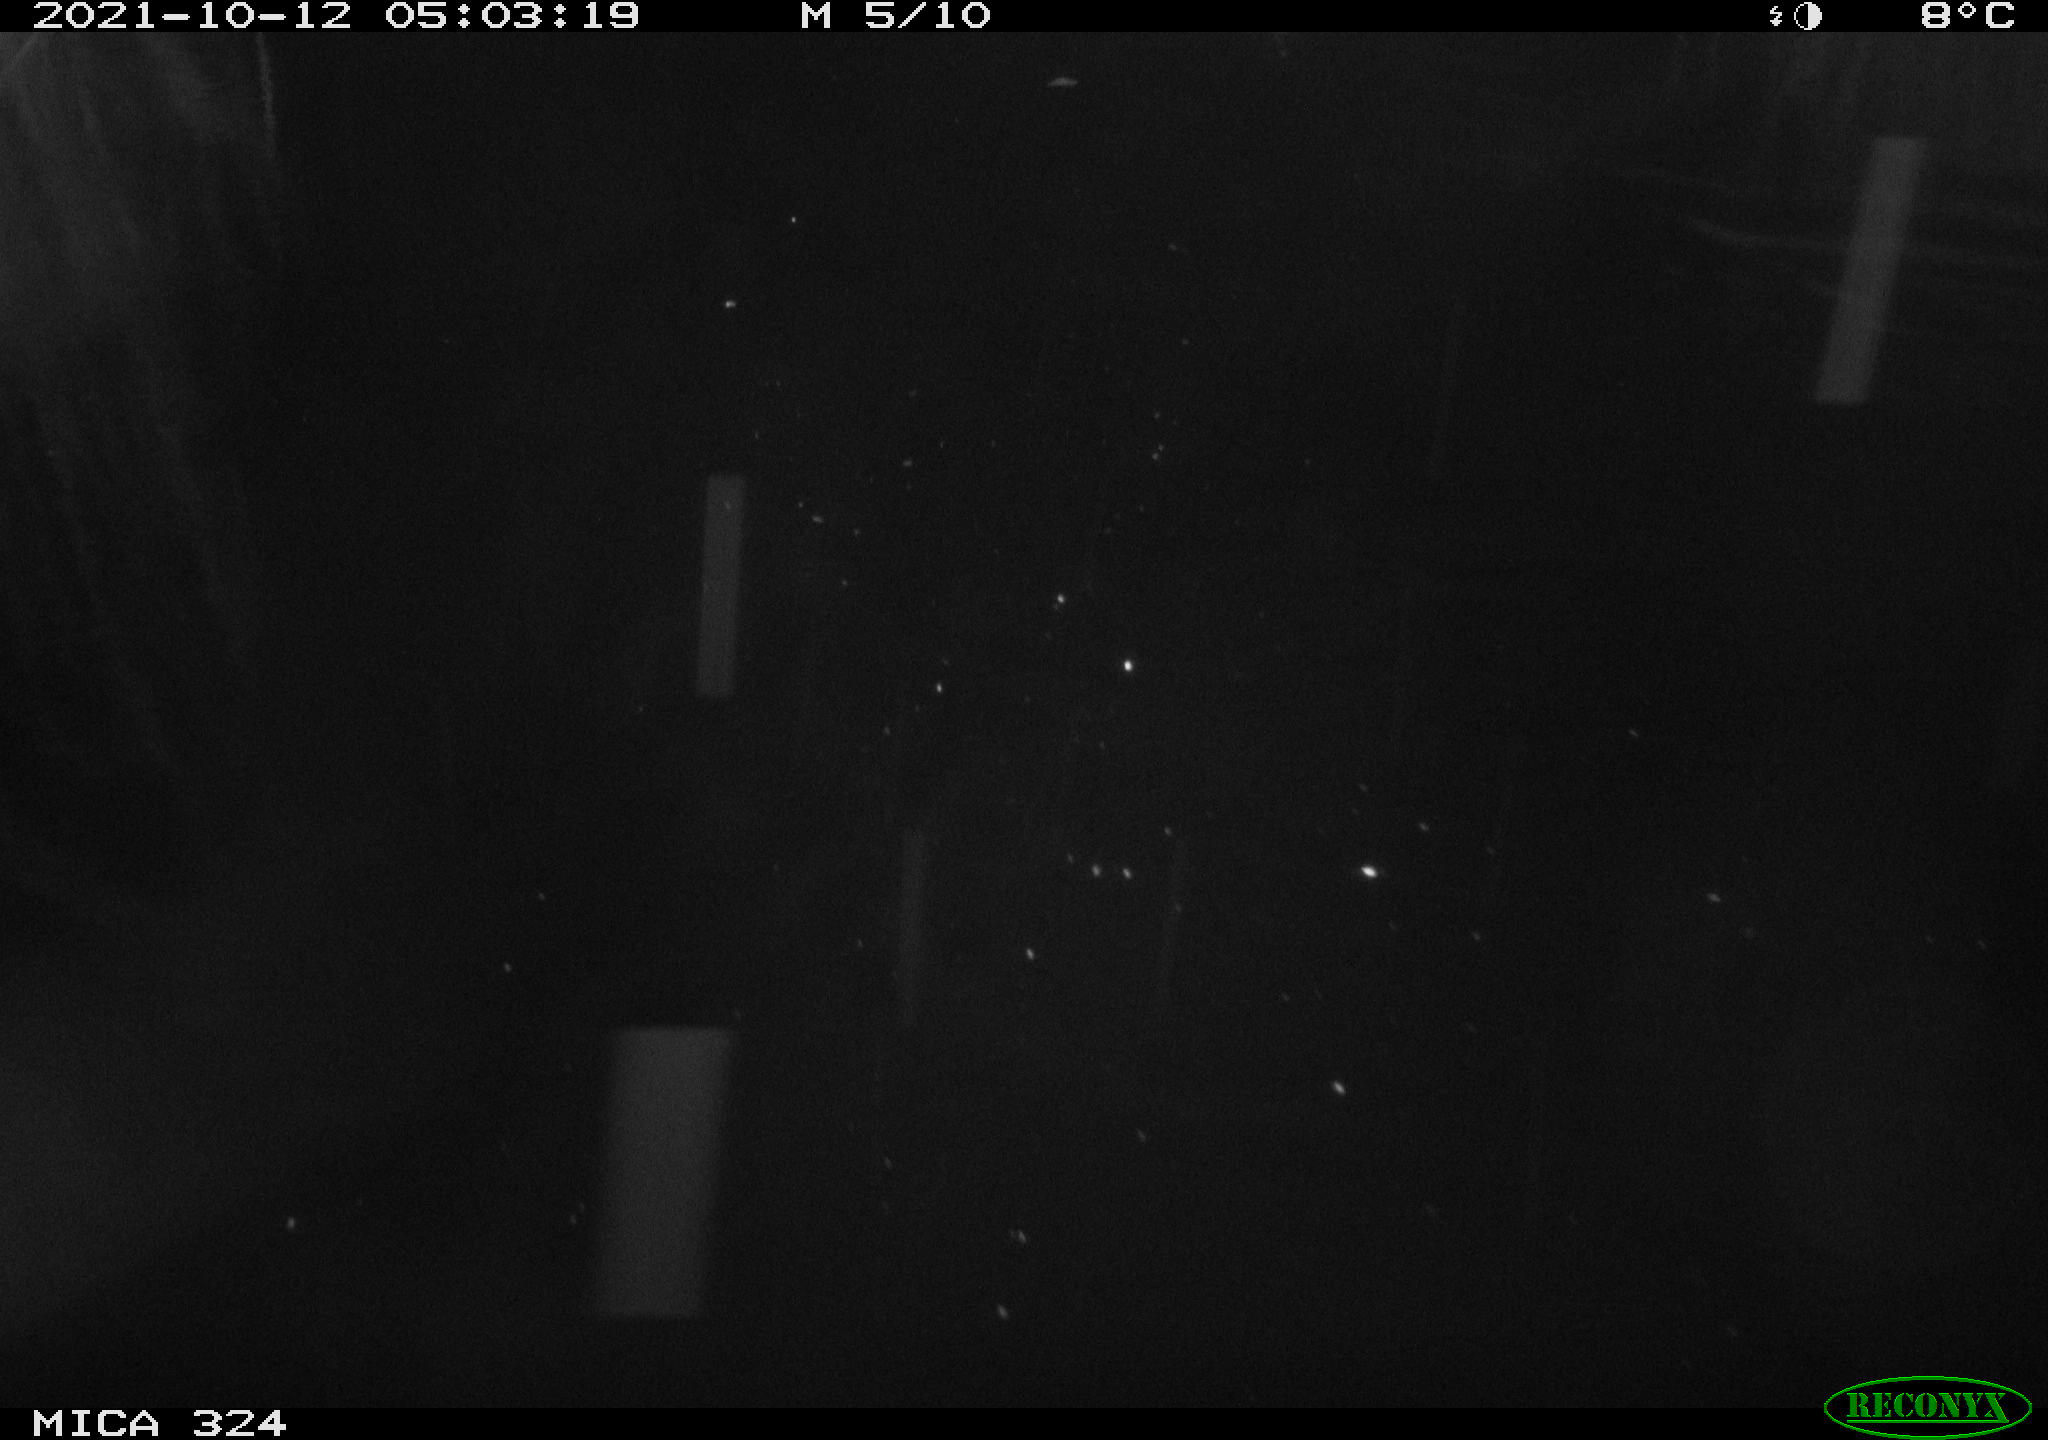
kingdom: Animalia
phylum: Chordata
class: Mammalia
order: Rodentia
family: Cricetidae
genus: Ondatra
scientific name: Ondatra zibethicus
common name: Muskrat
